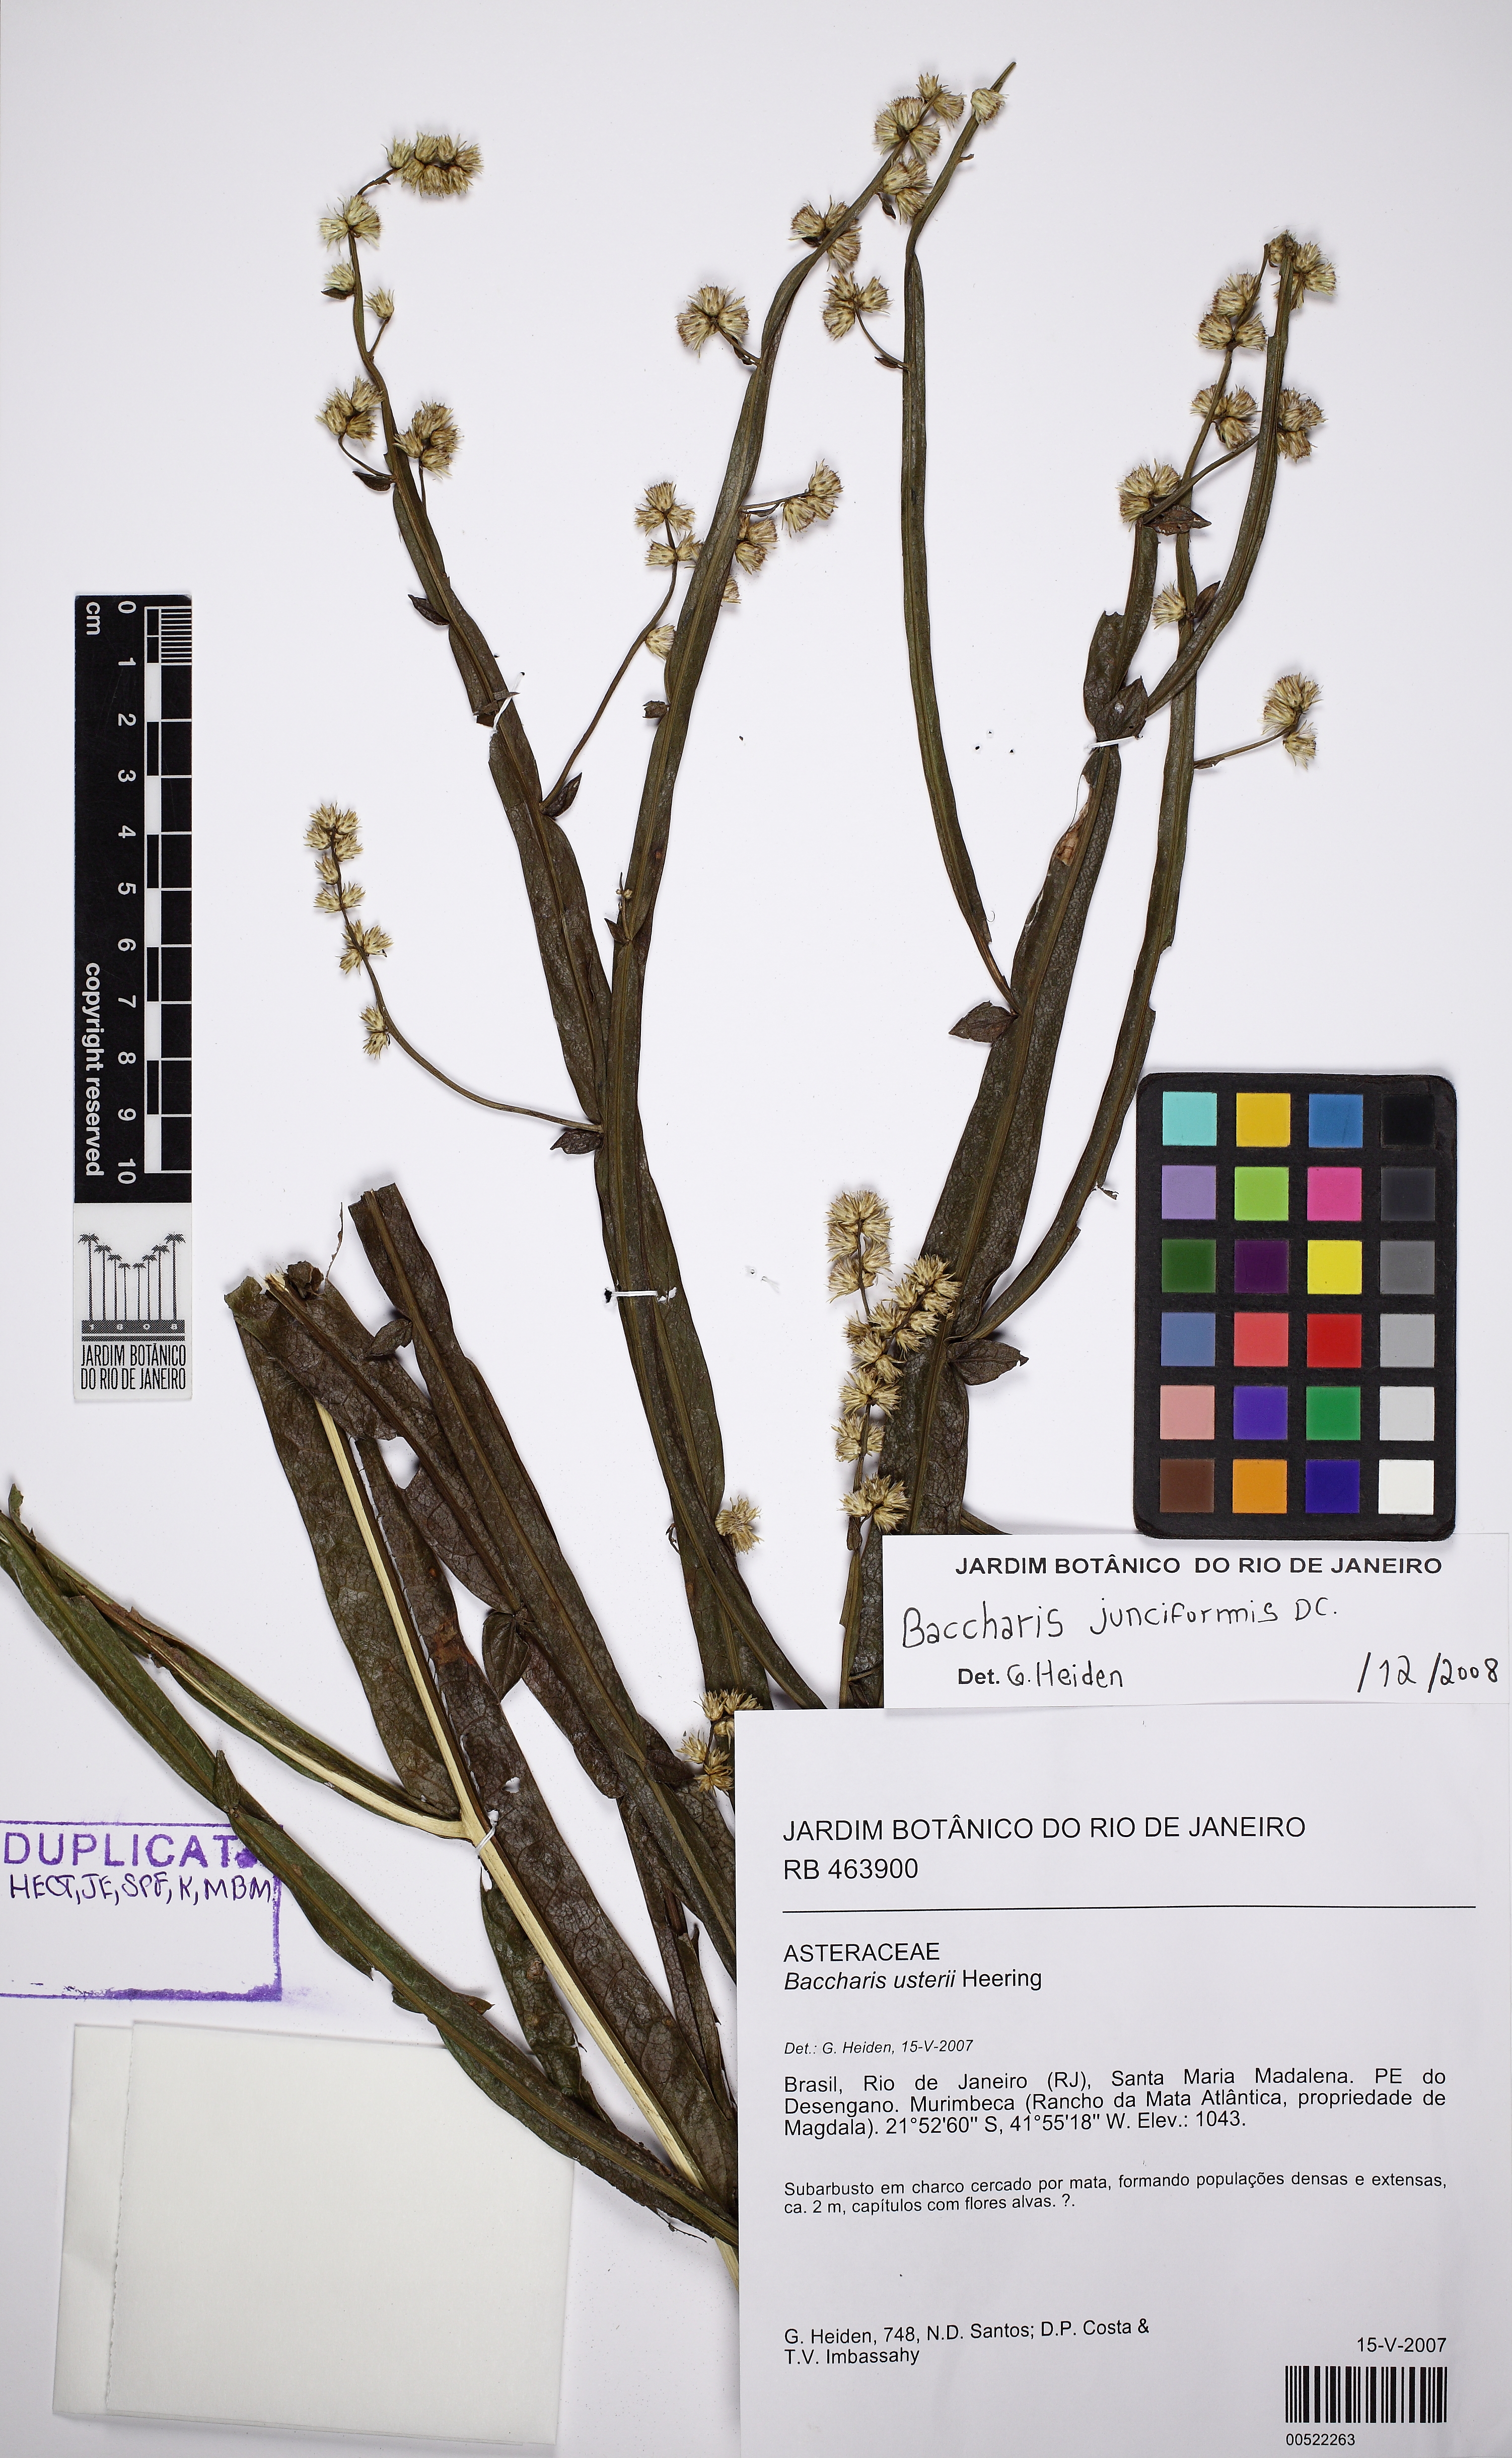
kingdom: Plantae
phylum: Tracheophyta
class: Magnoliopsida
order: Asterales
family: Asteraceae
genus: Baccharis
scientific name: Baccharis junciformis
